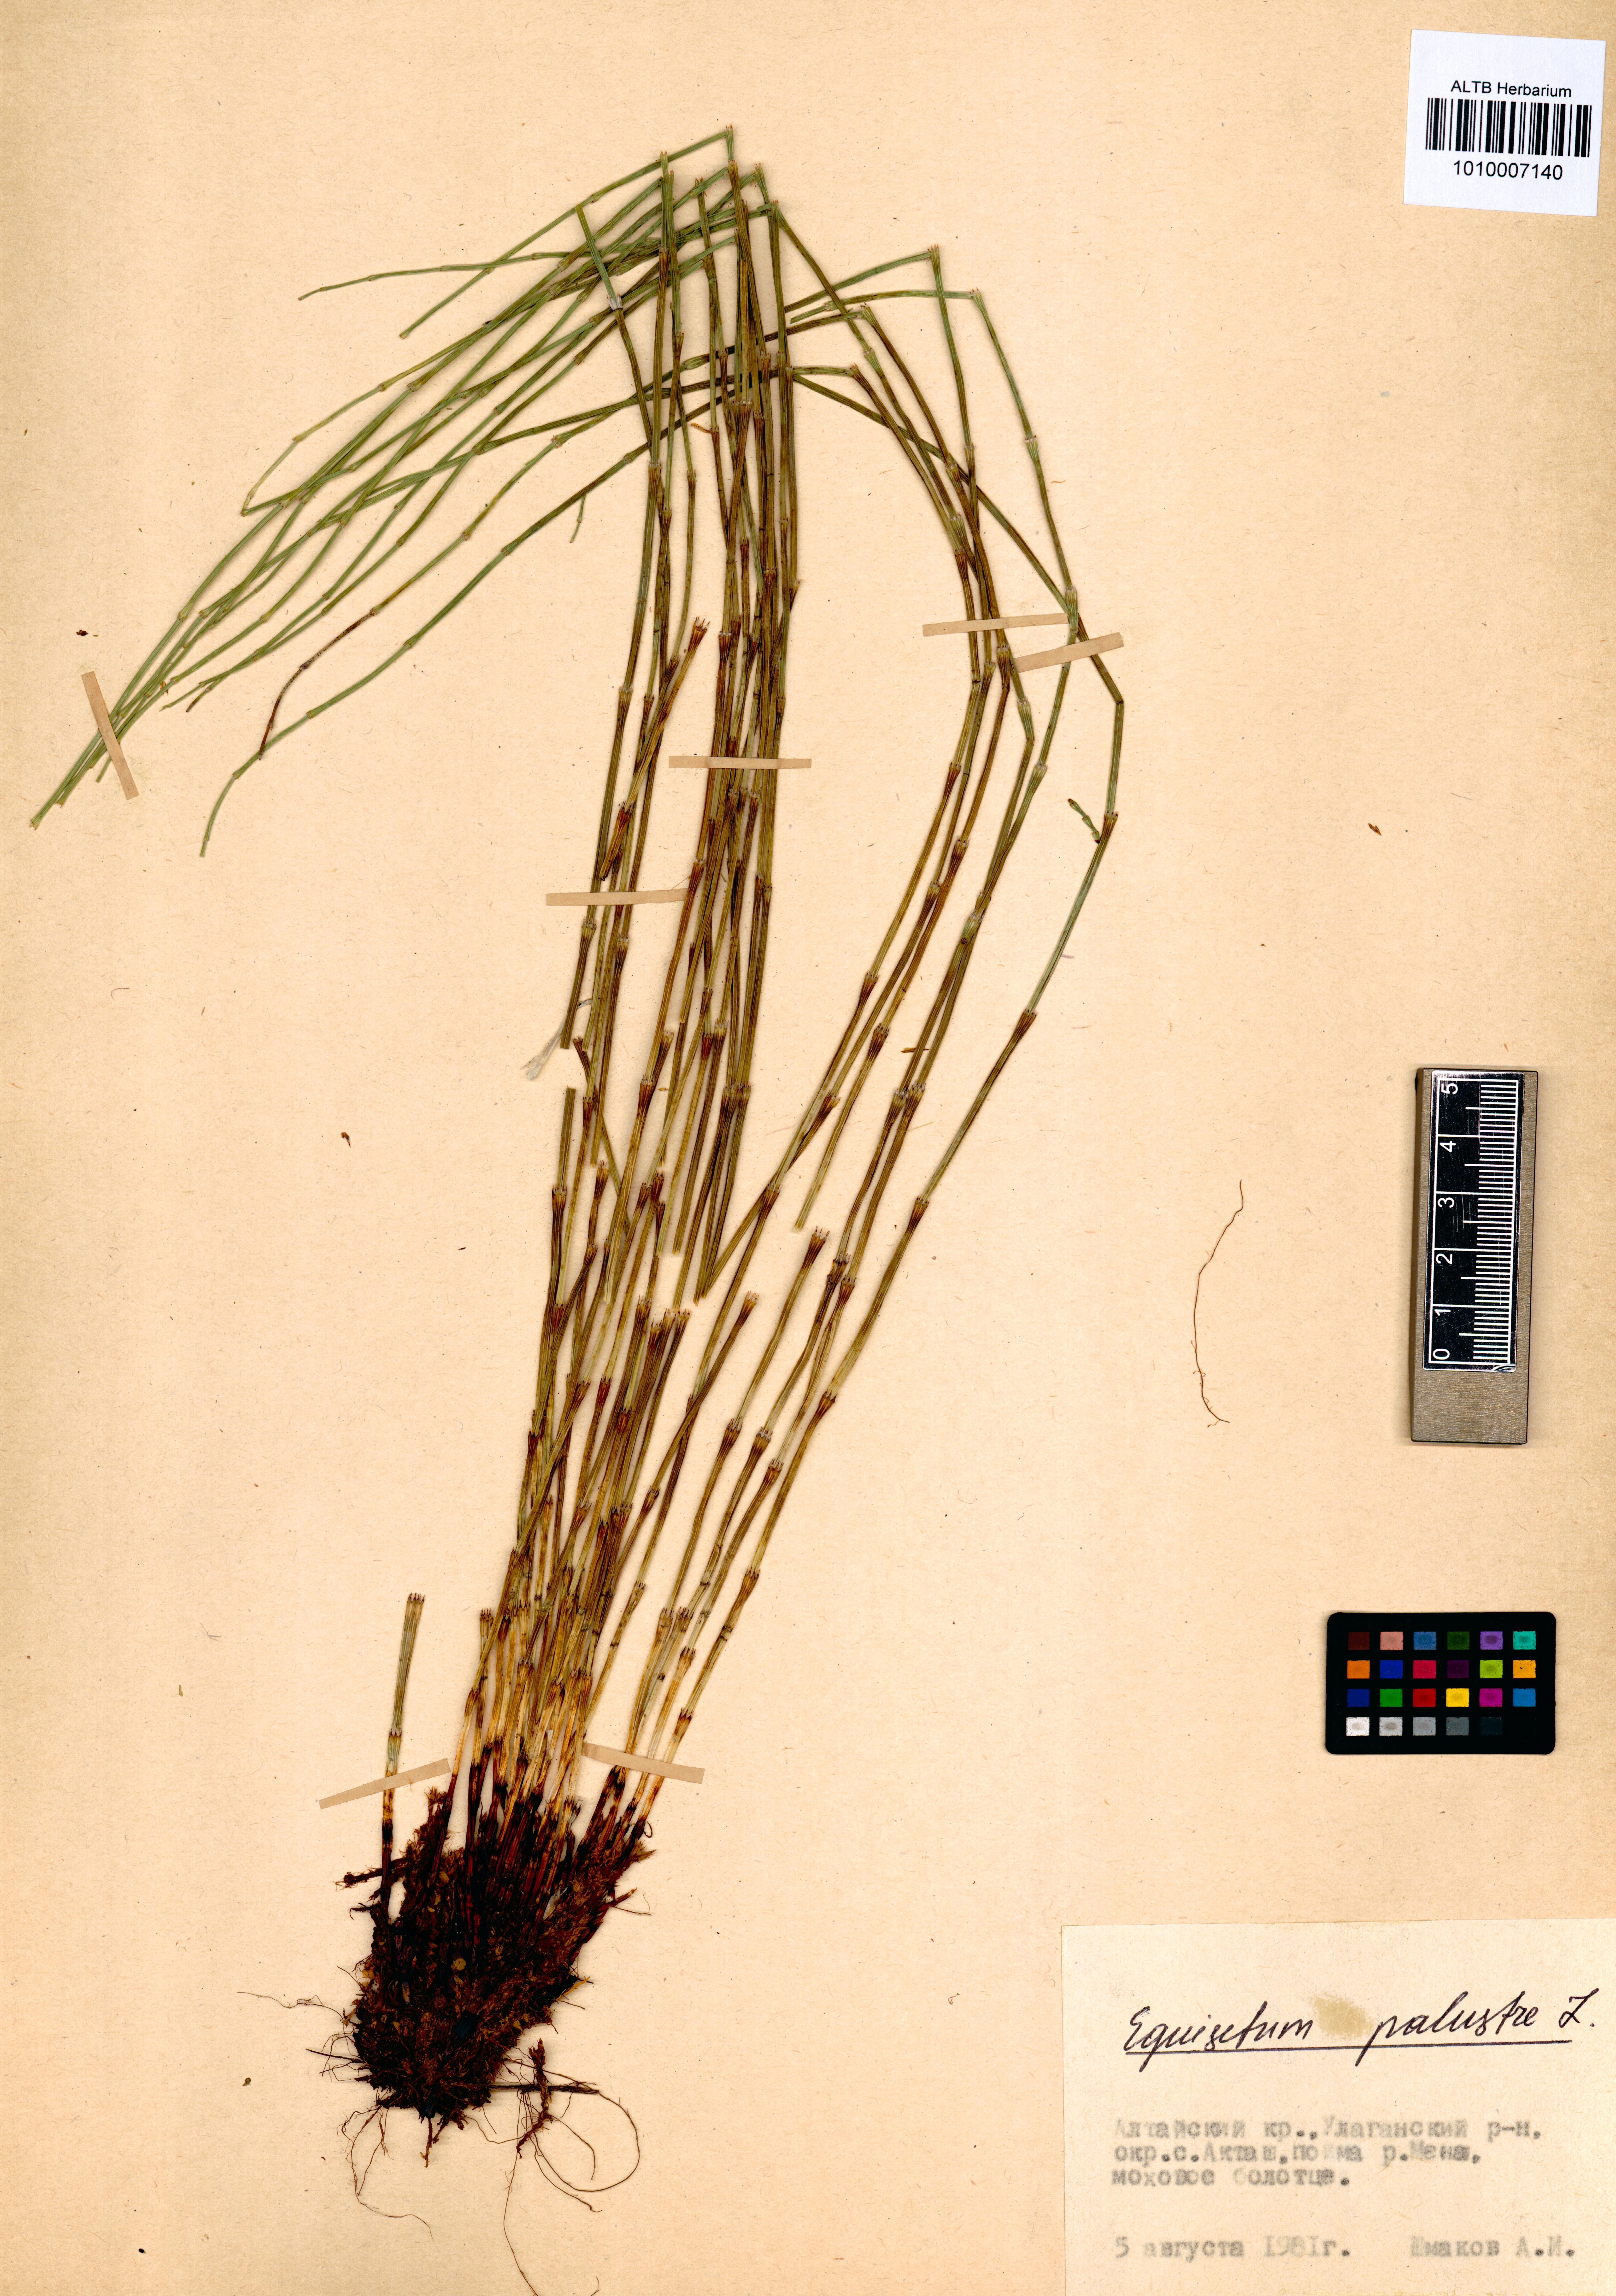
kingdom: Plantae
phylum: Tracheophyta
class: Polypodiopsida
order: Equisetales
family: Equisetaceae
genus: Equisetum
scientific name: Equisetum palustre
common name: Marsh horsetail
